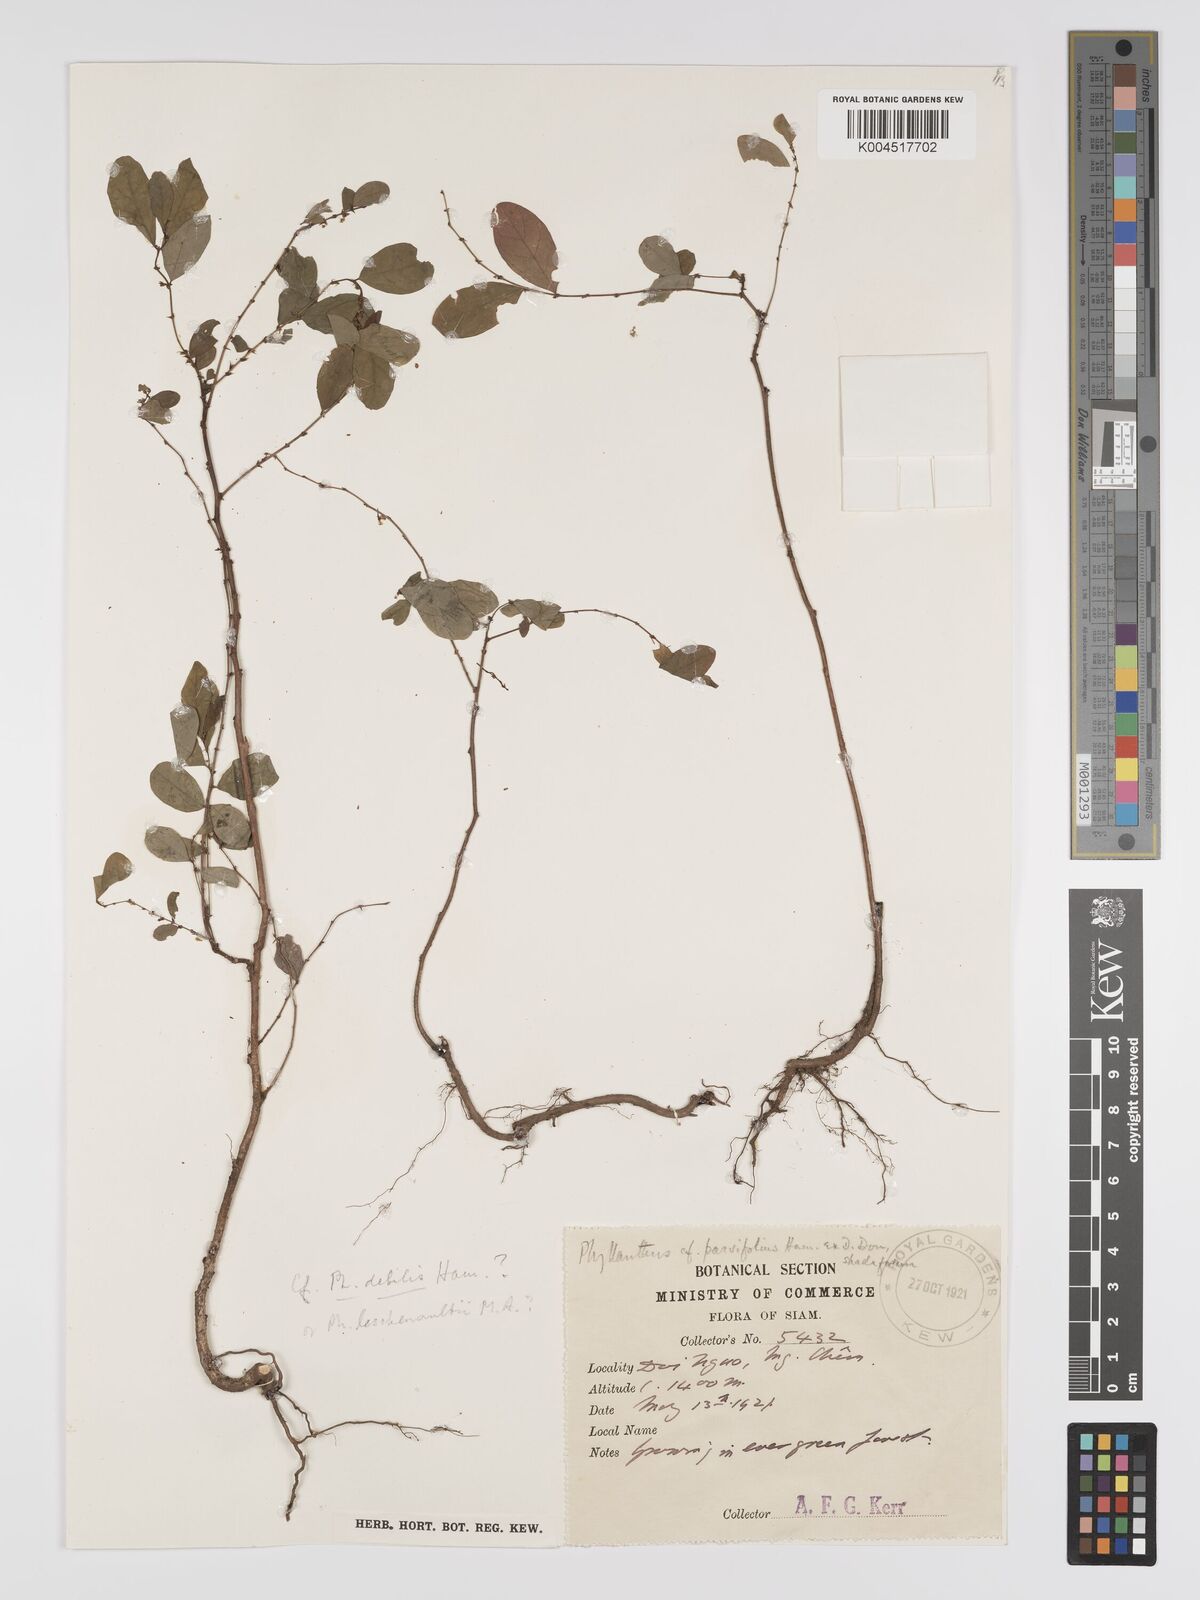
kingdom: Plantae
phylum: Tracheophyta
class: Magnoliopsida
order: Malpighiales
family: Phyllanthaceae
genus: Phyllanthus
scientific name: Phyllanthus
